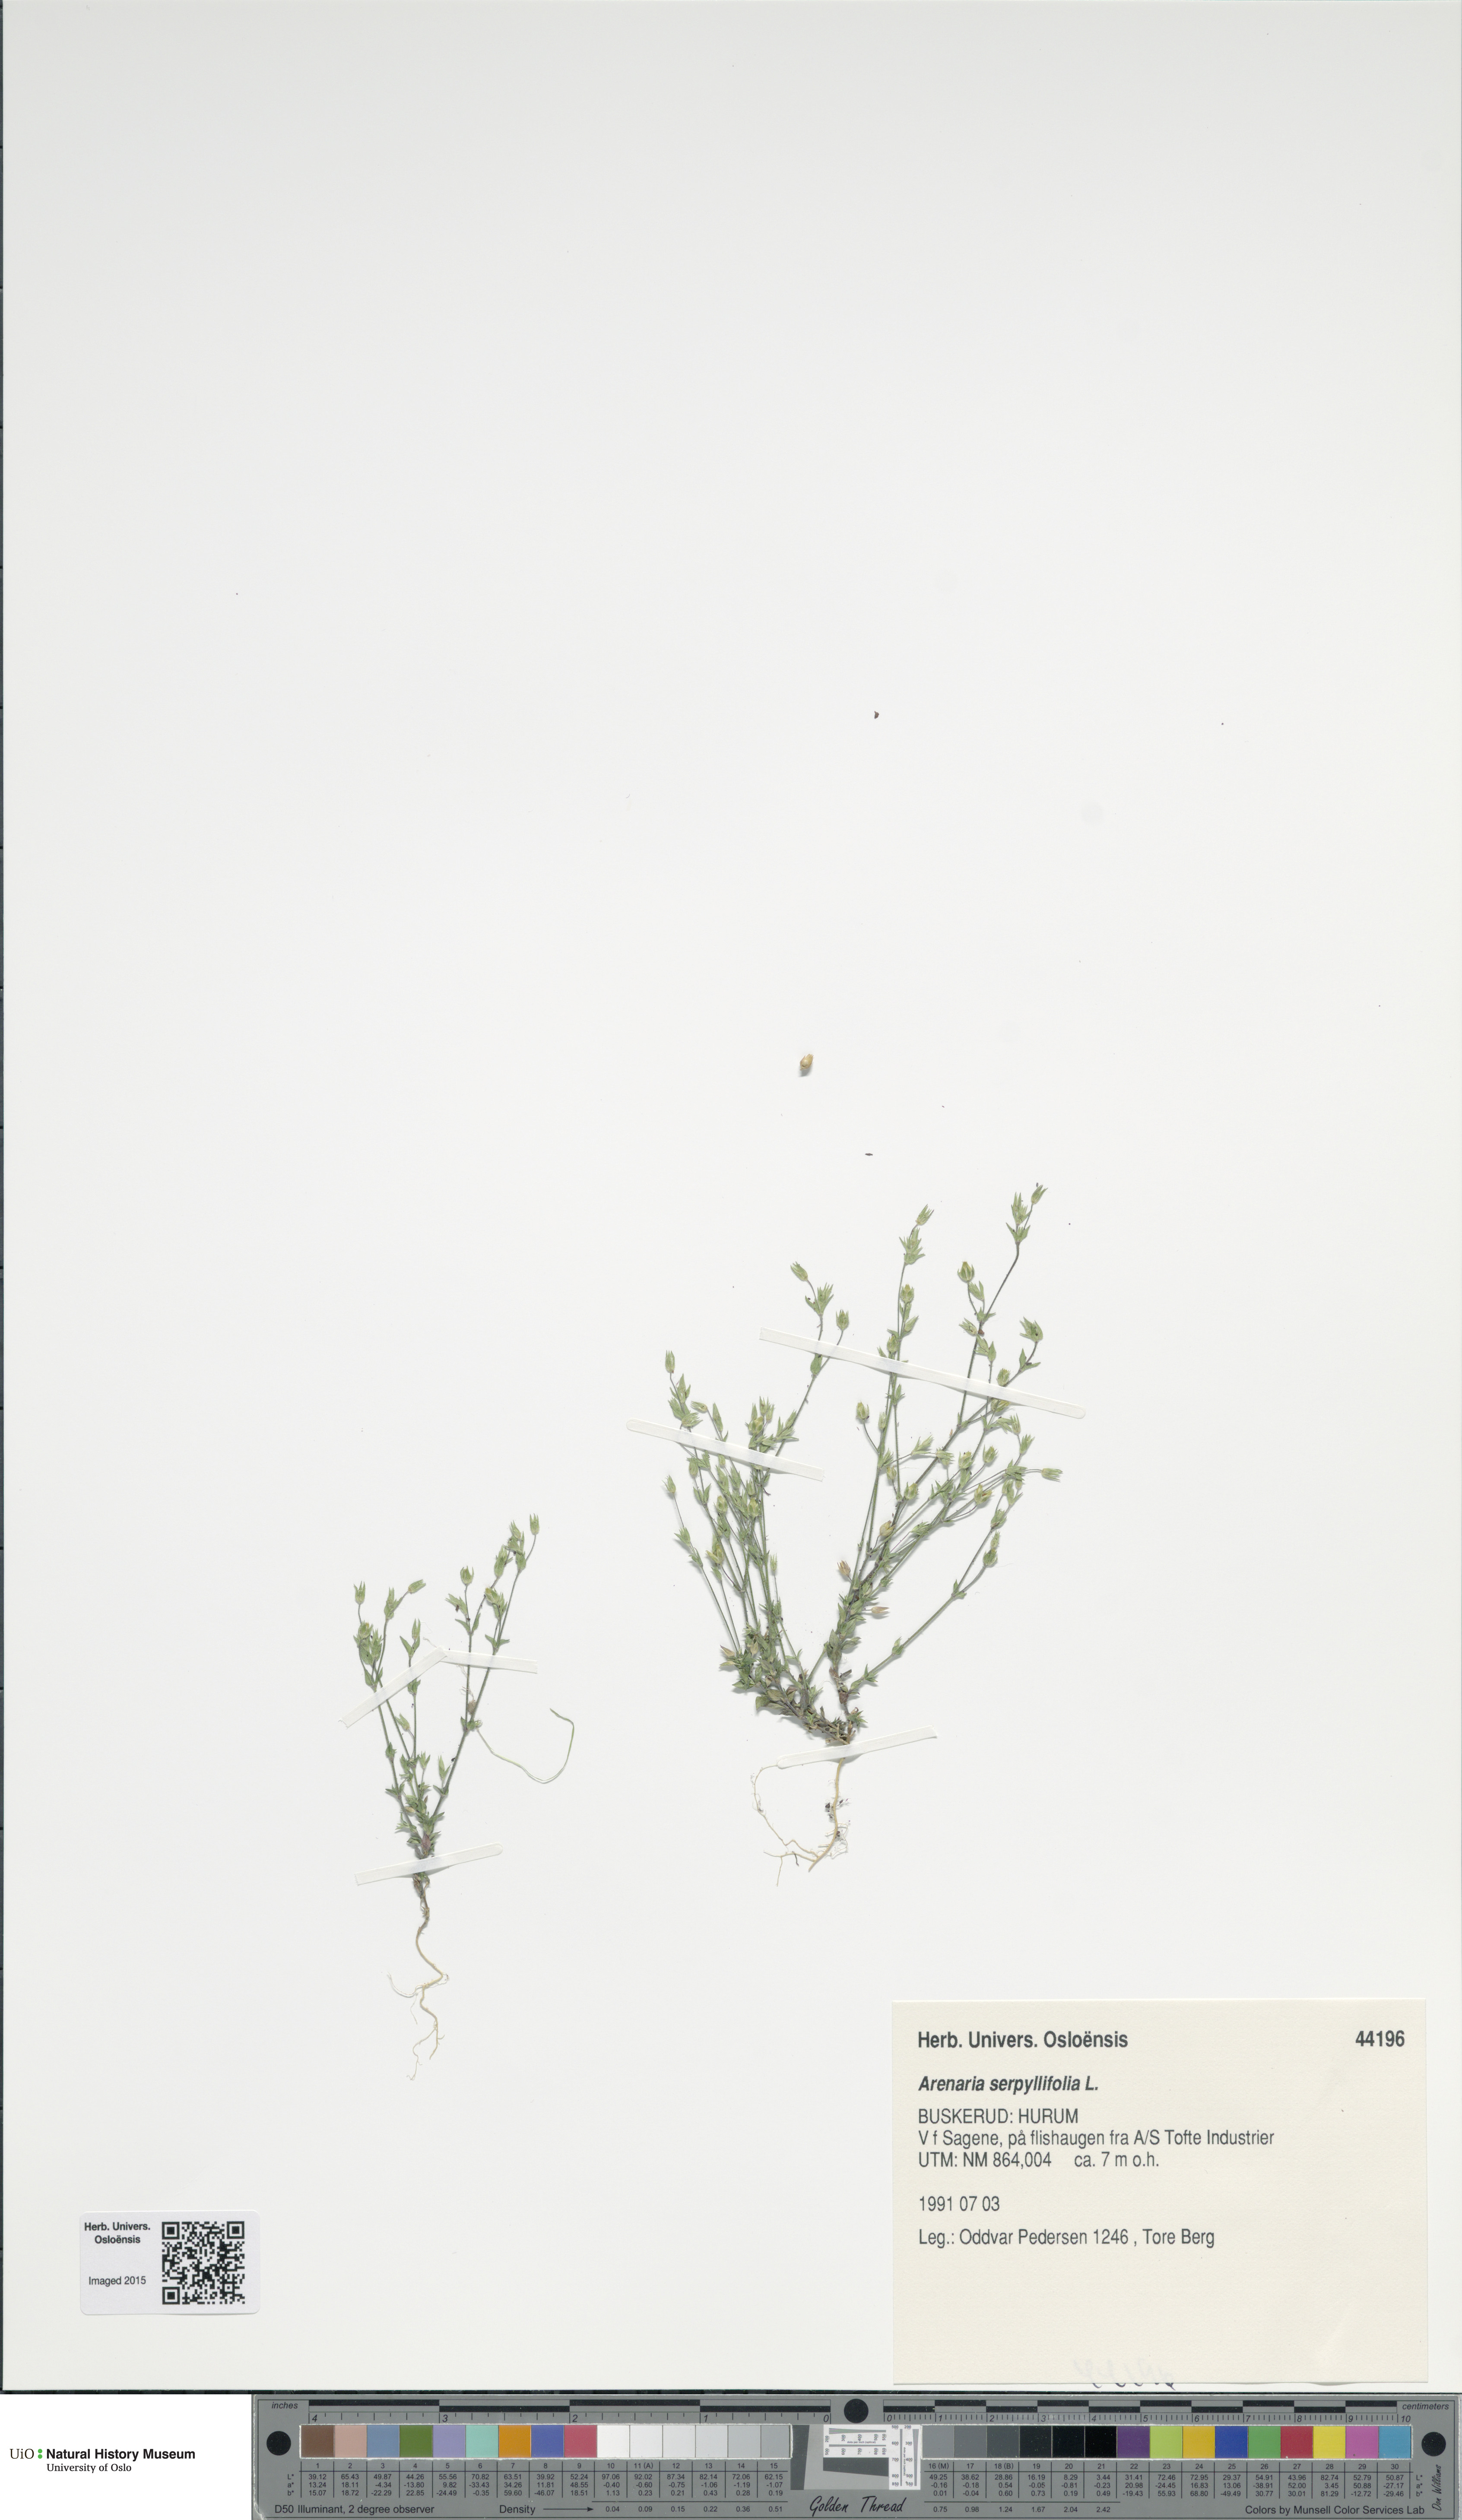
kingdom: Plantae
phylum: Tracheophyta
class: Magnoliopsida
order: Caryophyllales
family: Caryophyllaceae
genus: Arenaria
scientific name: Arenaria serpyllifolia
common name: Thyme-leaved sandwort
